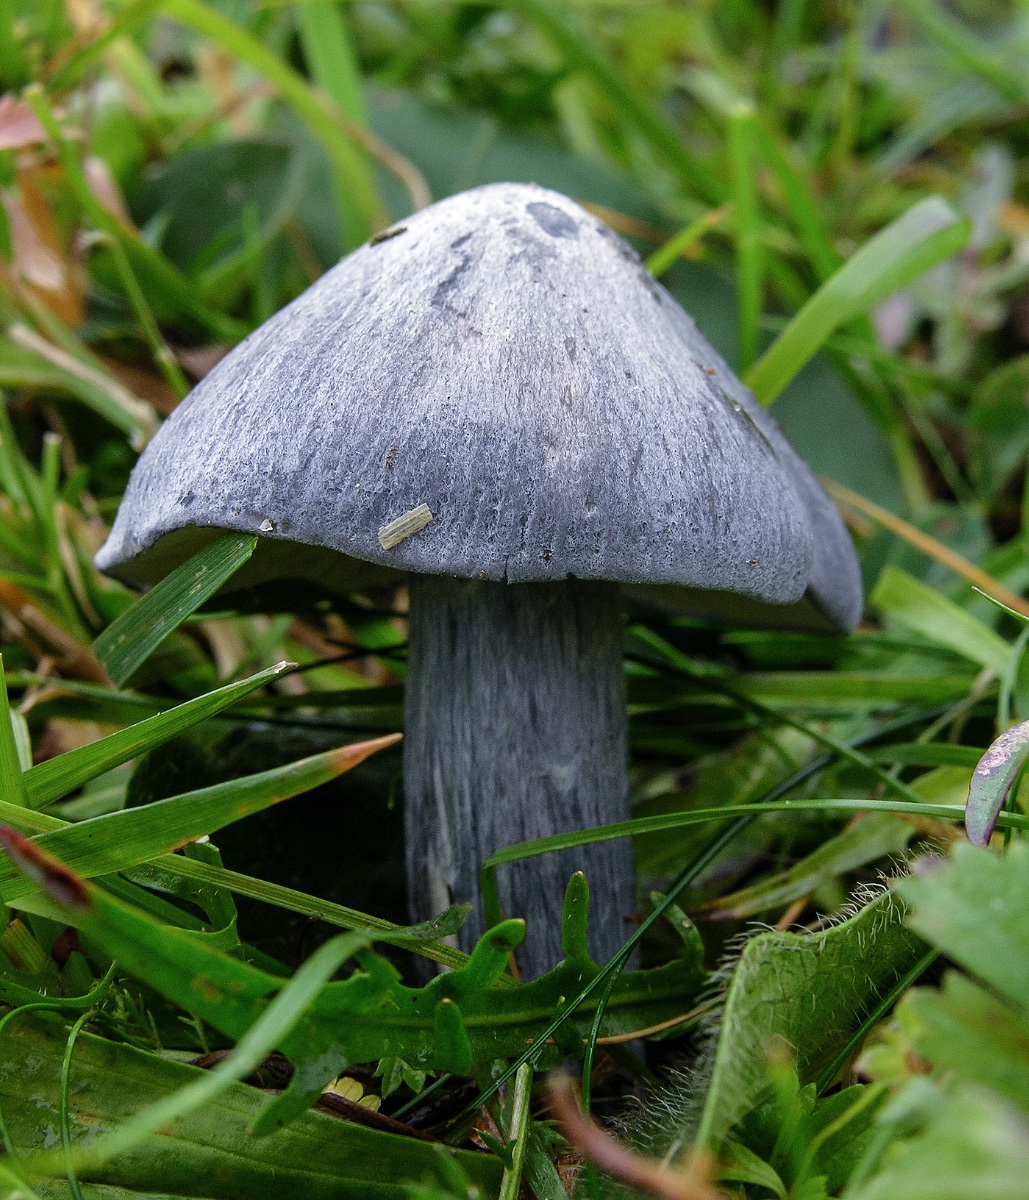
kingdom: Fungi
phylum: Basidiomycota
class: Agaricomycetes
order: Agaricales
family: Entolomataceae
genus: Entoloma
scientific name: Entoloma
